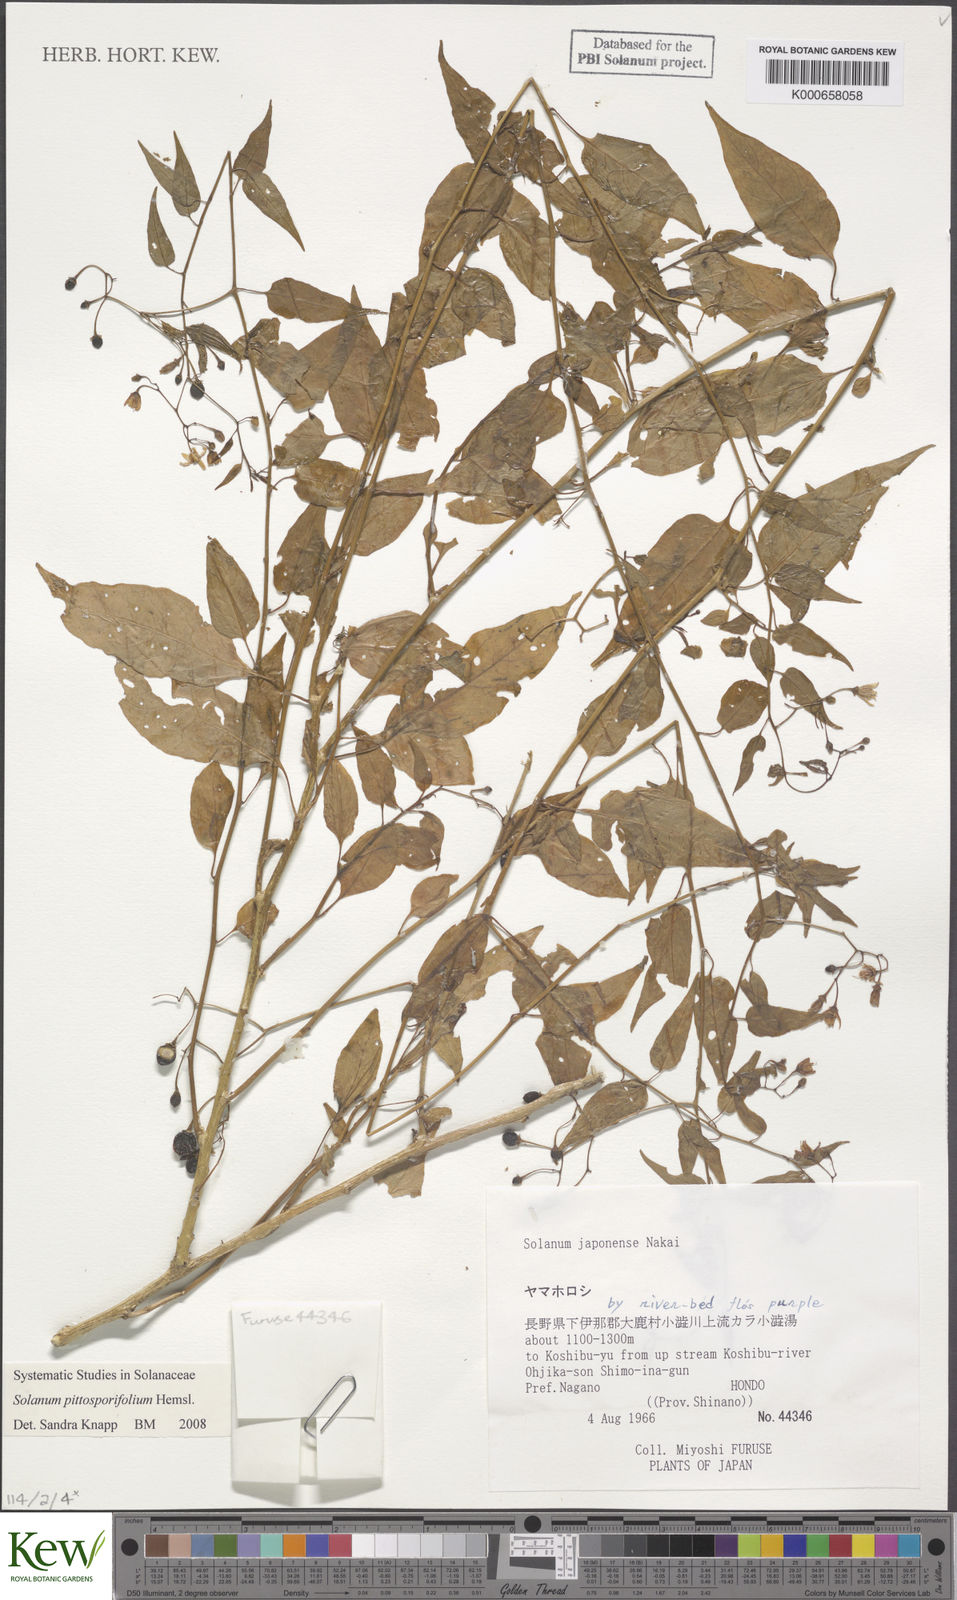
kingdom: Plantae
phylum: Tracheophyta
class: Magnoliopsida
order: Solanales
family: Solanaceae
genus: Solanum
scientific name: Solanum pittosporifolium
